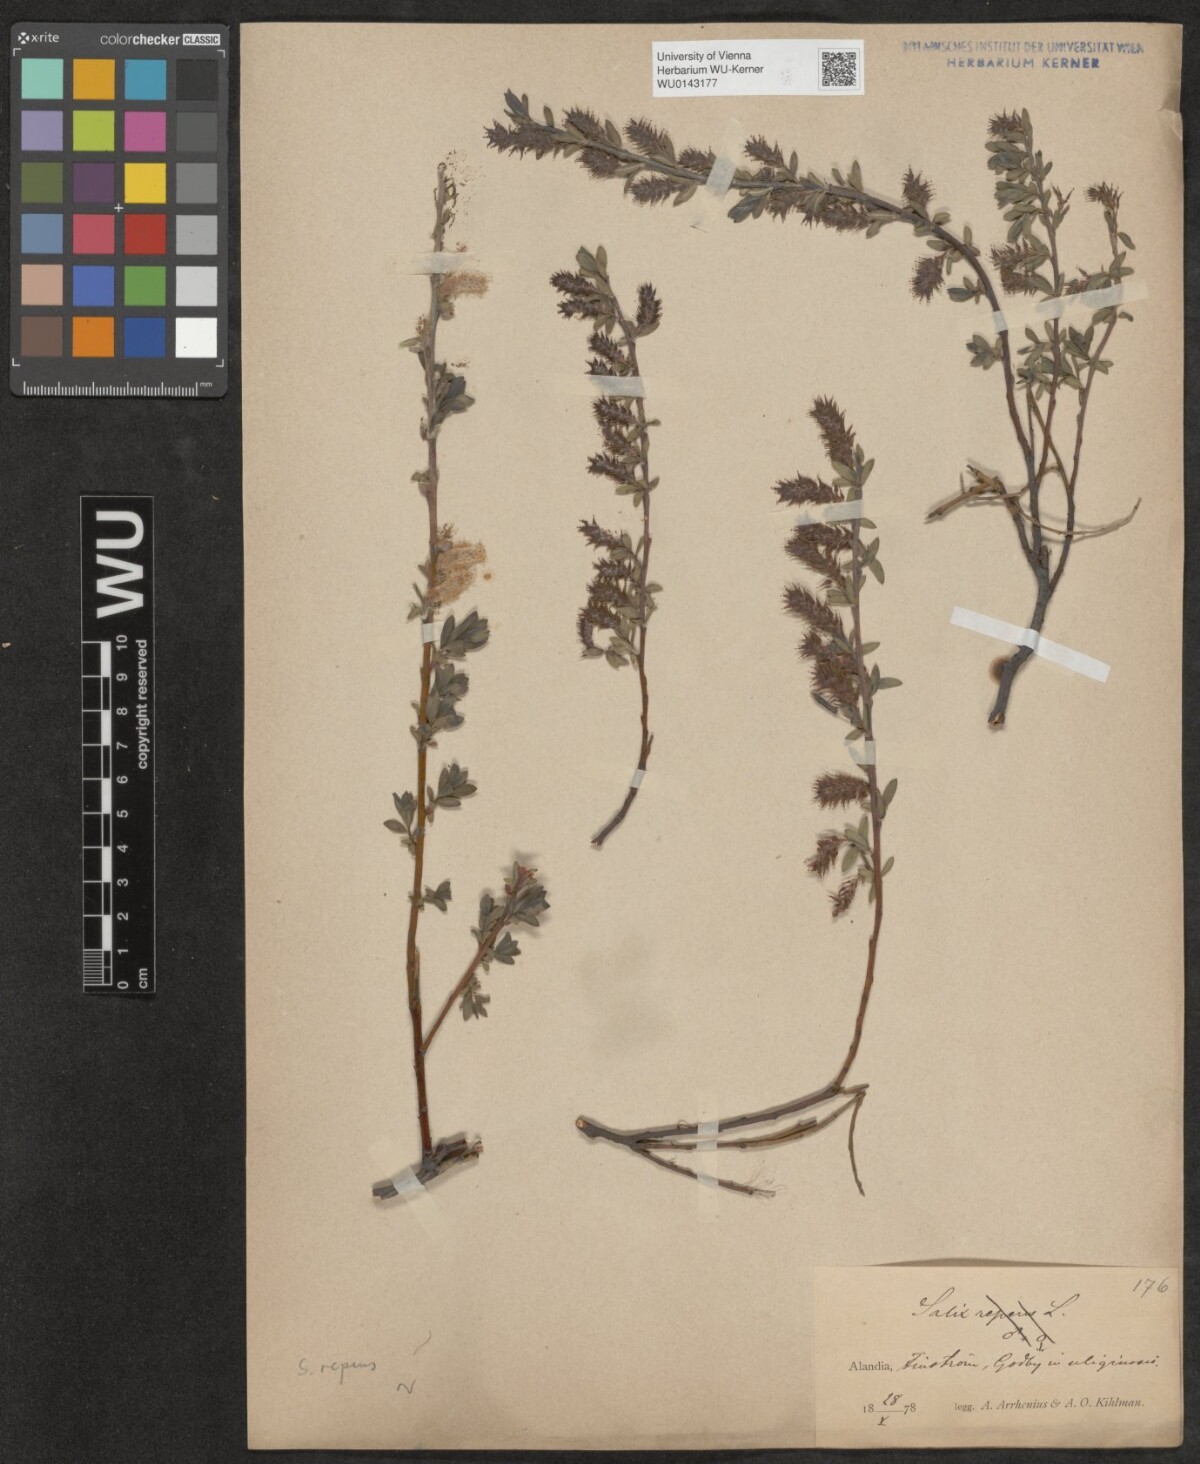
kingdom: Plantae
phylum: Tracheophyta
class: Magnoliopsida
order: Malpighiales
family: Salicaceae
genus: Salix
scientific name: Salix repens
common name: Creeping willow
